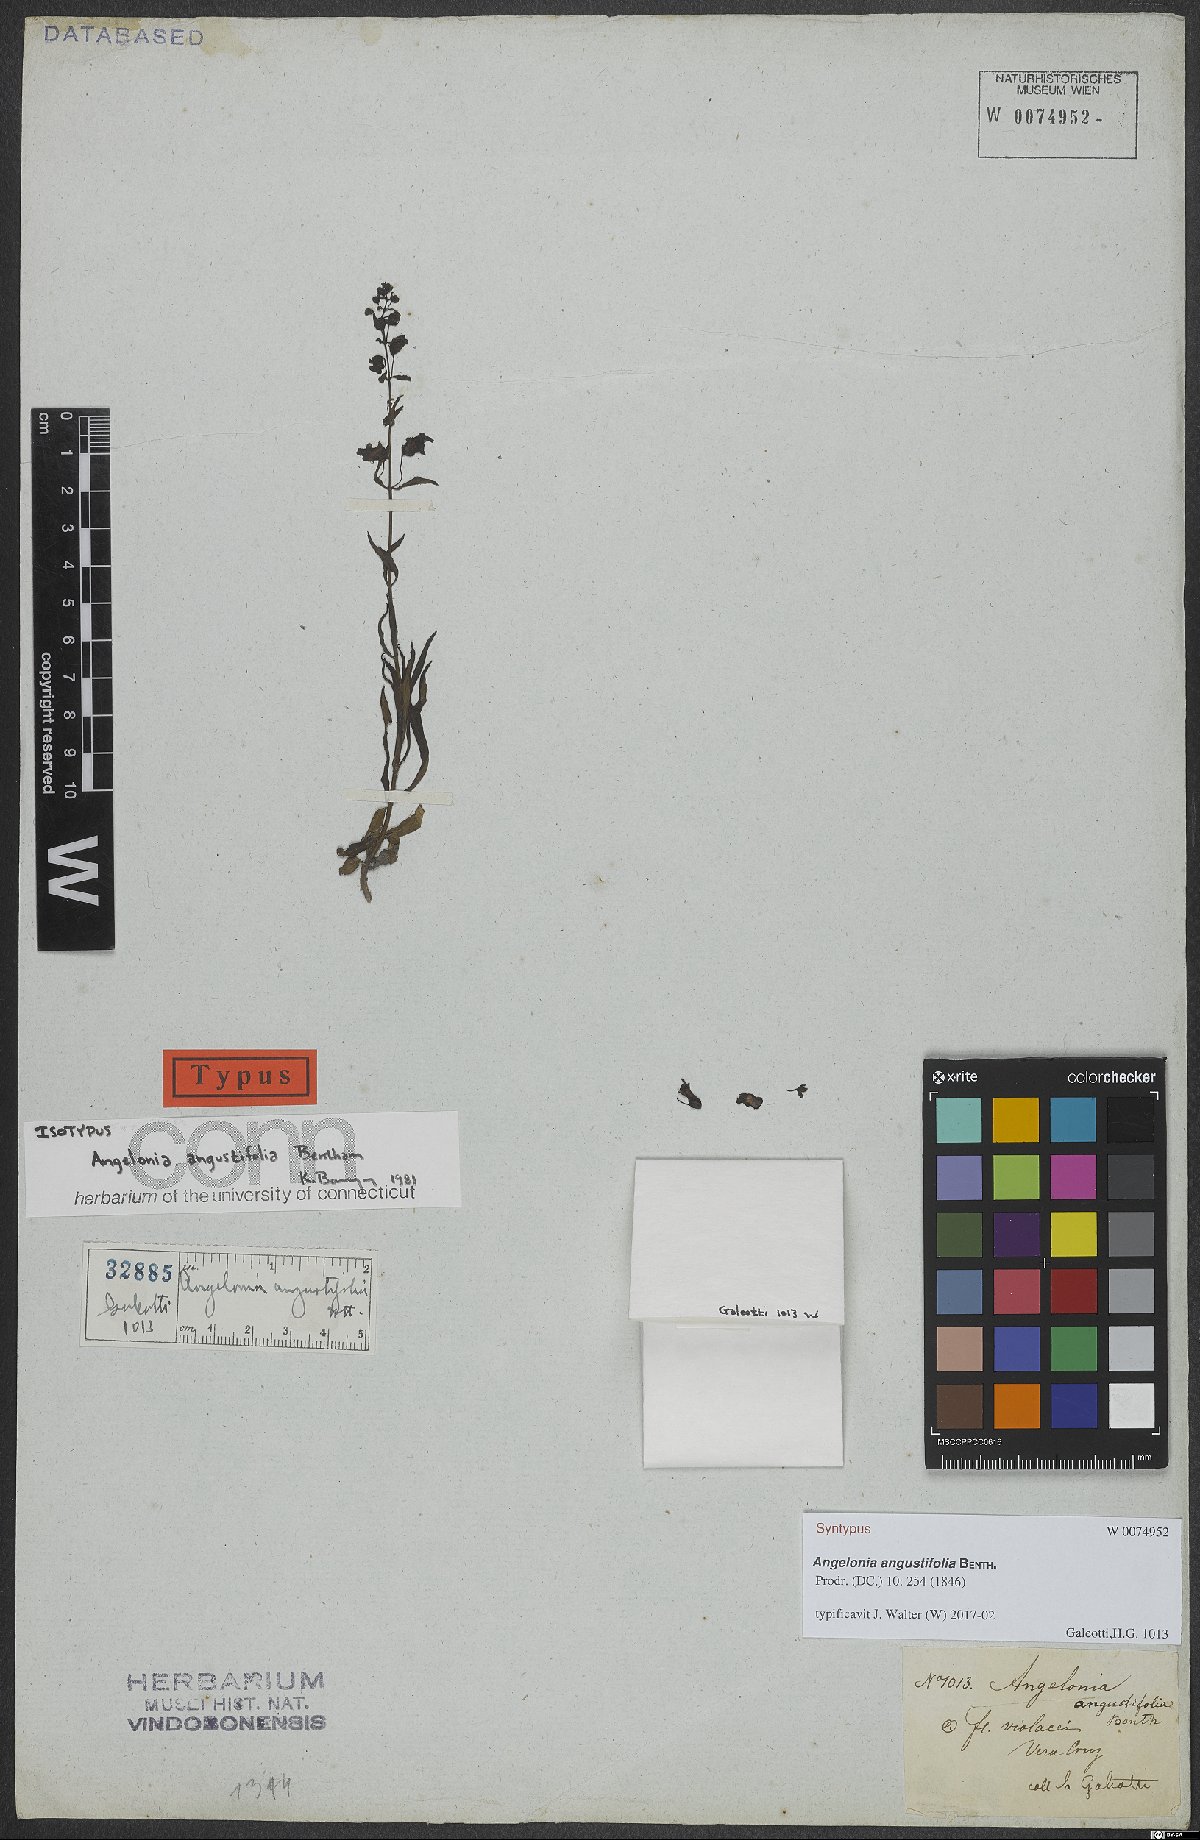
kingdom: Plantae
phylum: Tracheophyta
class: Magnoliopsida
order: Lamiales
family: Plantaginaceae
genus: Angelonia
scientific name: Angelonia angustifolia
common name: Narrowleaf angelon
